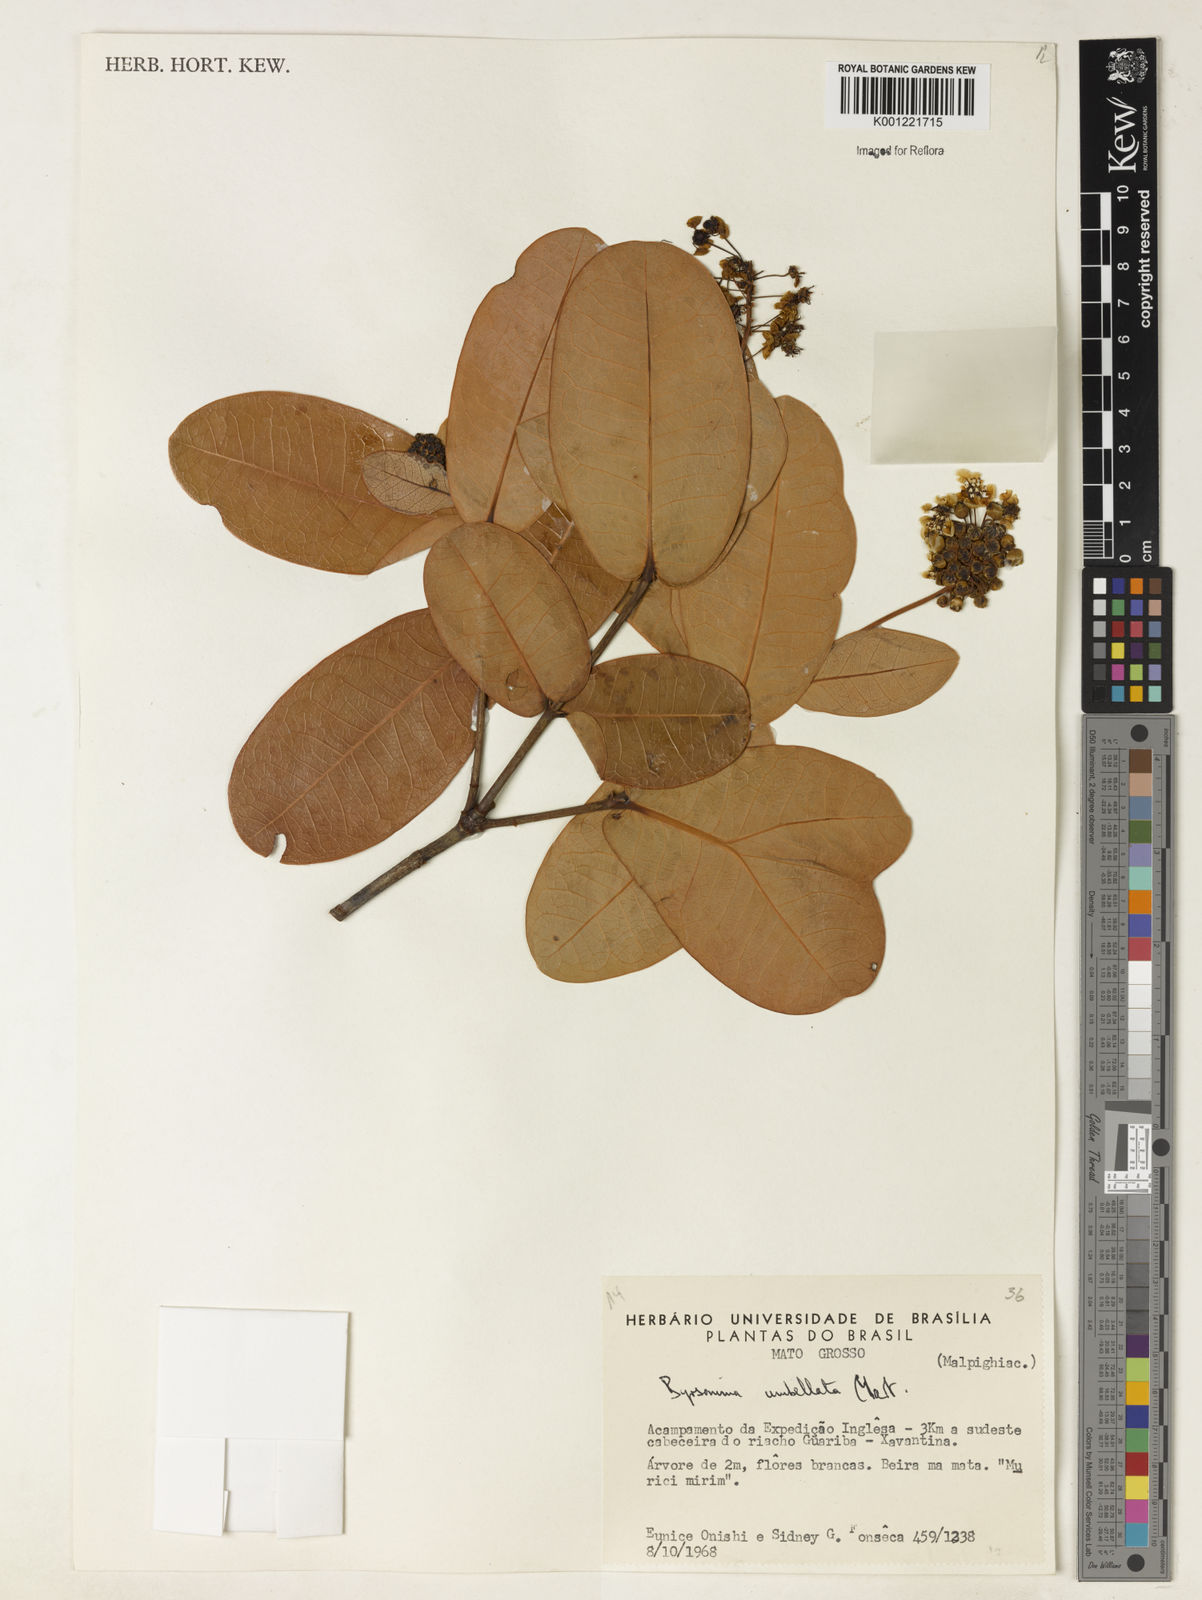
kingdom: Plantae
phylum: Tracheophyta
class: Magnoliopsida
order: Malpighiales
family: Malpighiaceae
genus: Byrsonima
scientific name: Byrsonima umbellata
